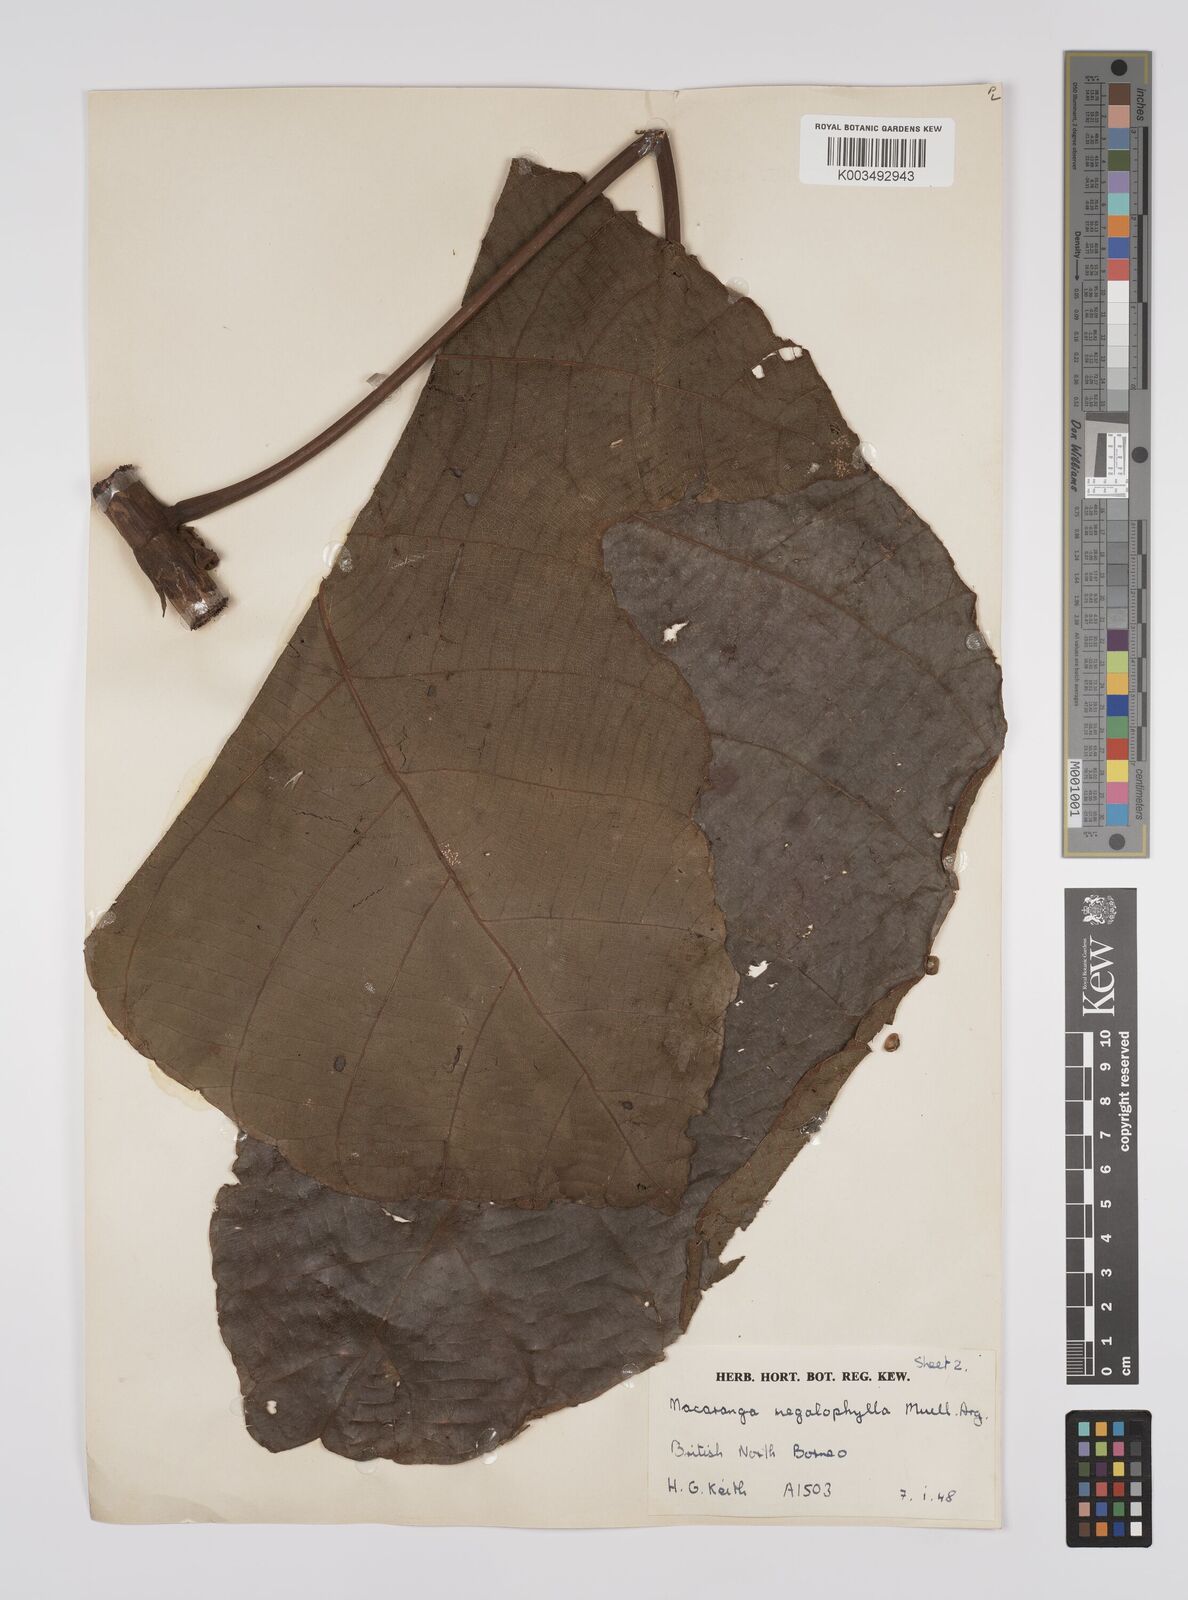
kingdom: Plantae
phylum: Tracheophyta
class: Magnoliopsida
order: Malpighiales
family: Euphorbiaceae
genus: Macaranga
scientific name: Macaranga gigantea
